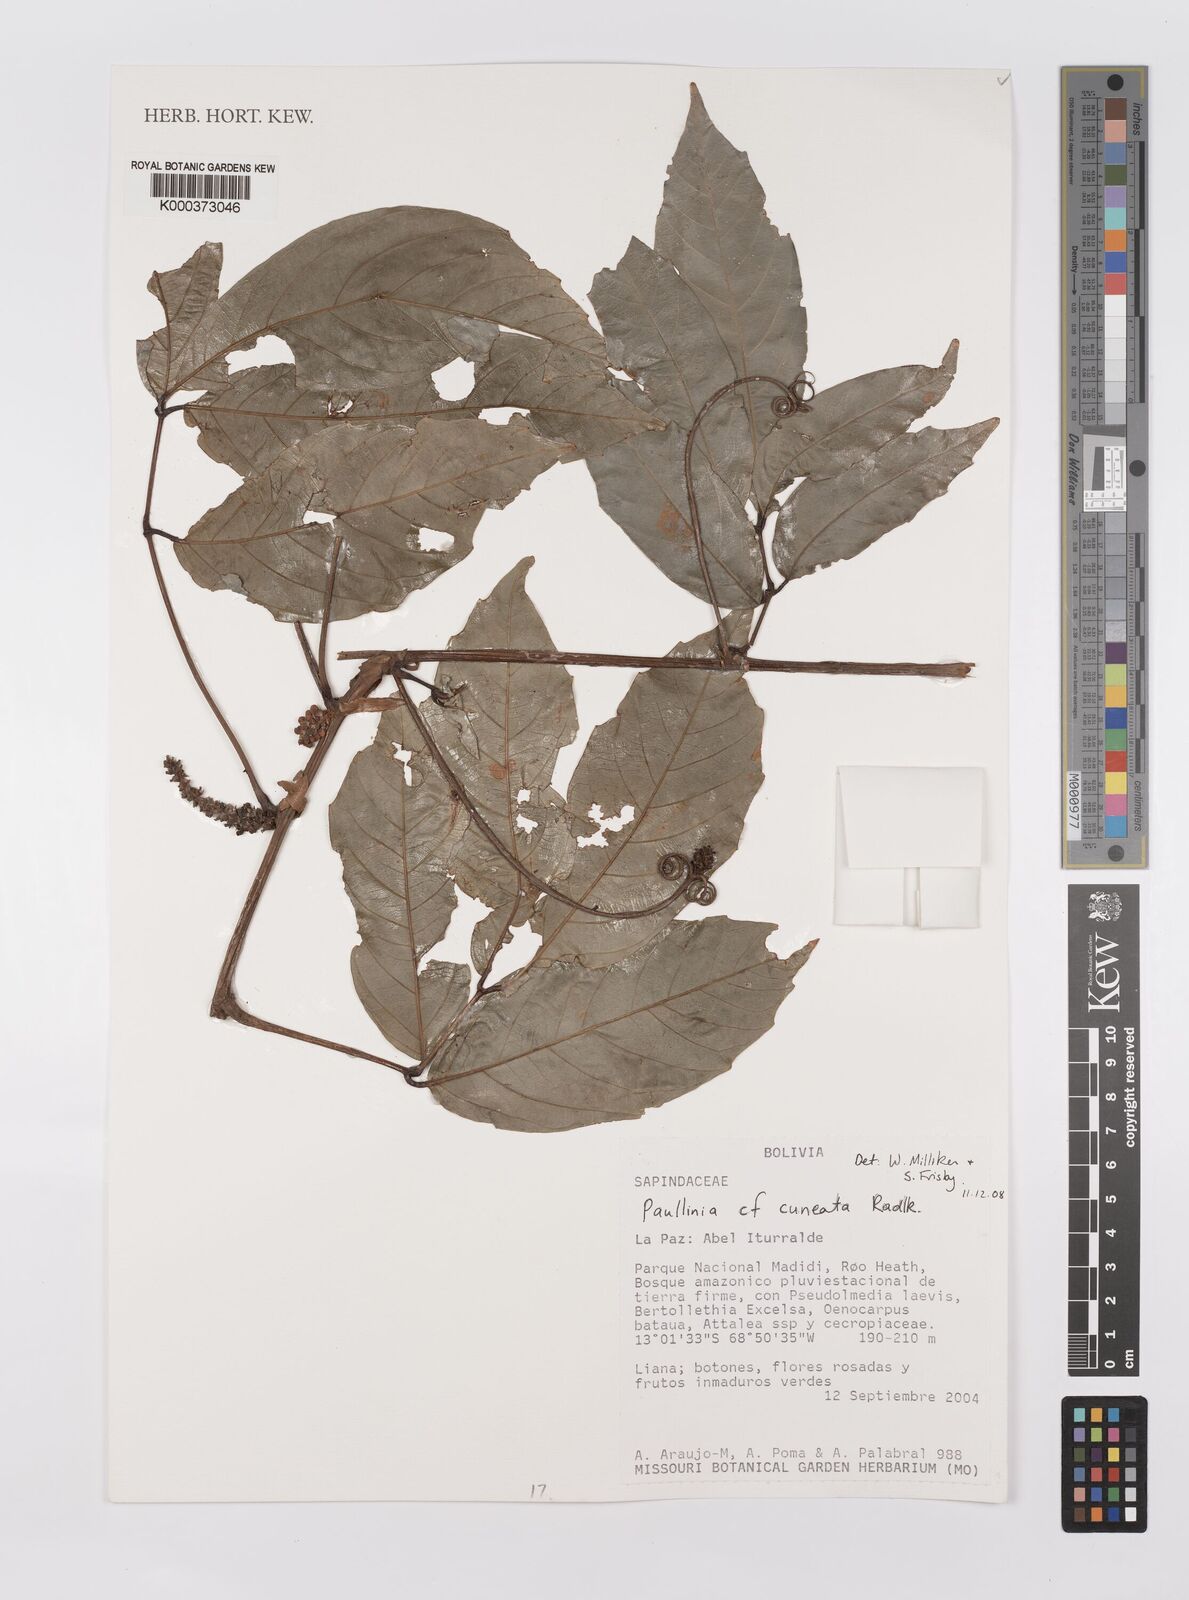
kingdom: Plantae
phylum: Tracheophyta
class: Magnoliopsida
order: Sapindales
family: Sapindaceae
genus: Paullinia
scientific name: Paullinia cuneata
